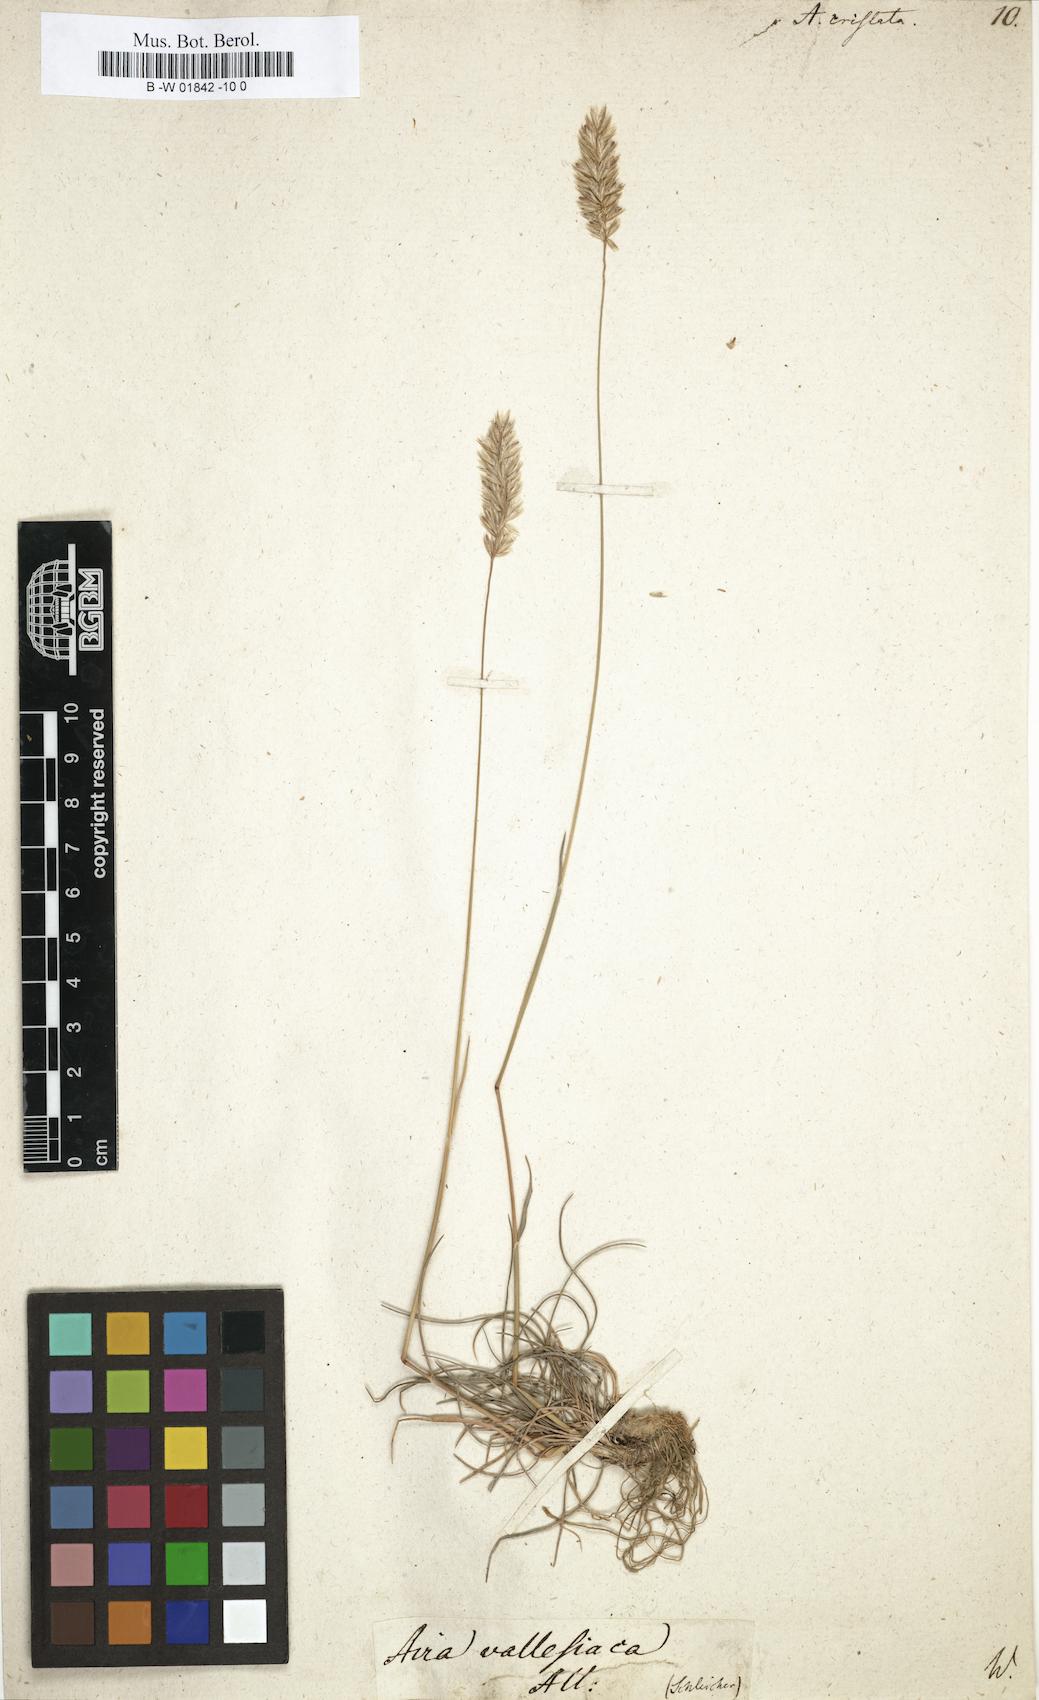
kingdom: Plantae
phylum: Tracheophyta
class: Liliopsida
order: Poales
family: Poaceae
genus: Koeleria
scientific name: Koeleria macrantha
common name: Crested hair-grass
